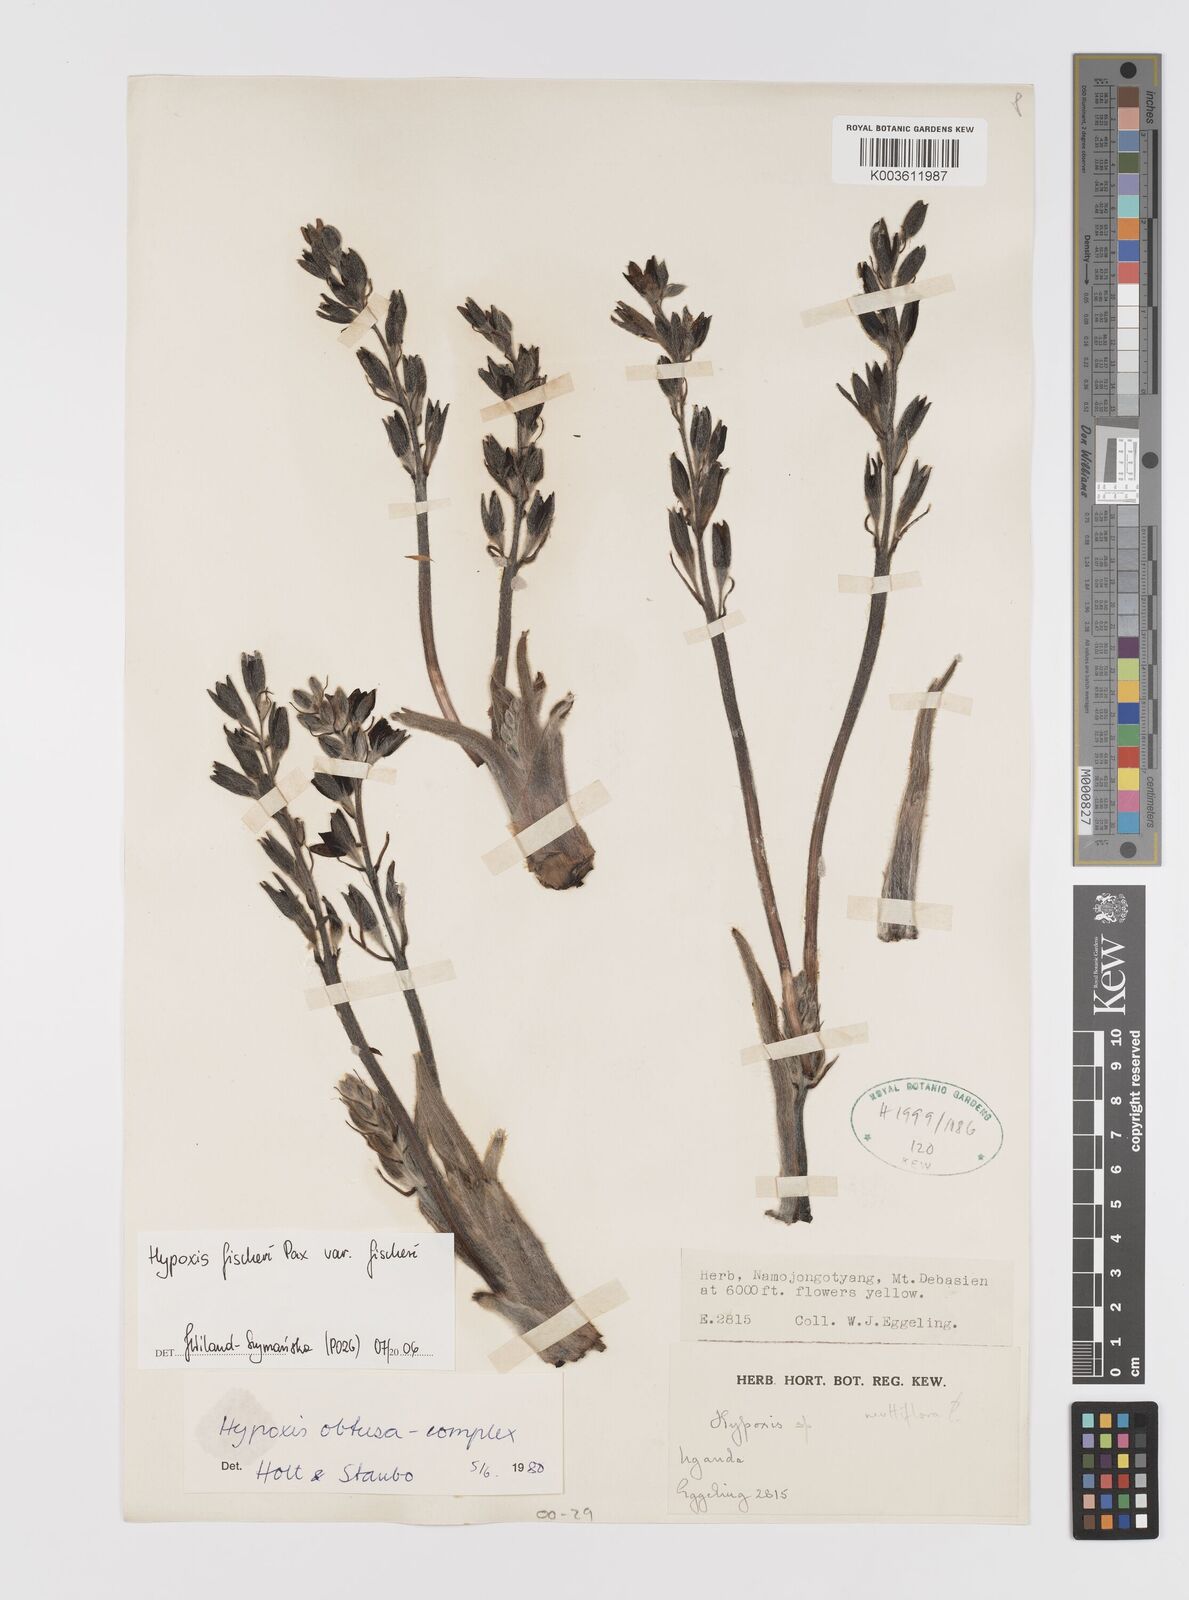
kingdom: Plantae
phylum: Tracheophyta
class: Liliopsida
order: Asparagales
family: Hypoxidaceae
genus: Hypoxis
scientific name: Hypoxis fischeri
